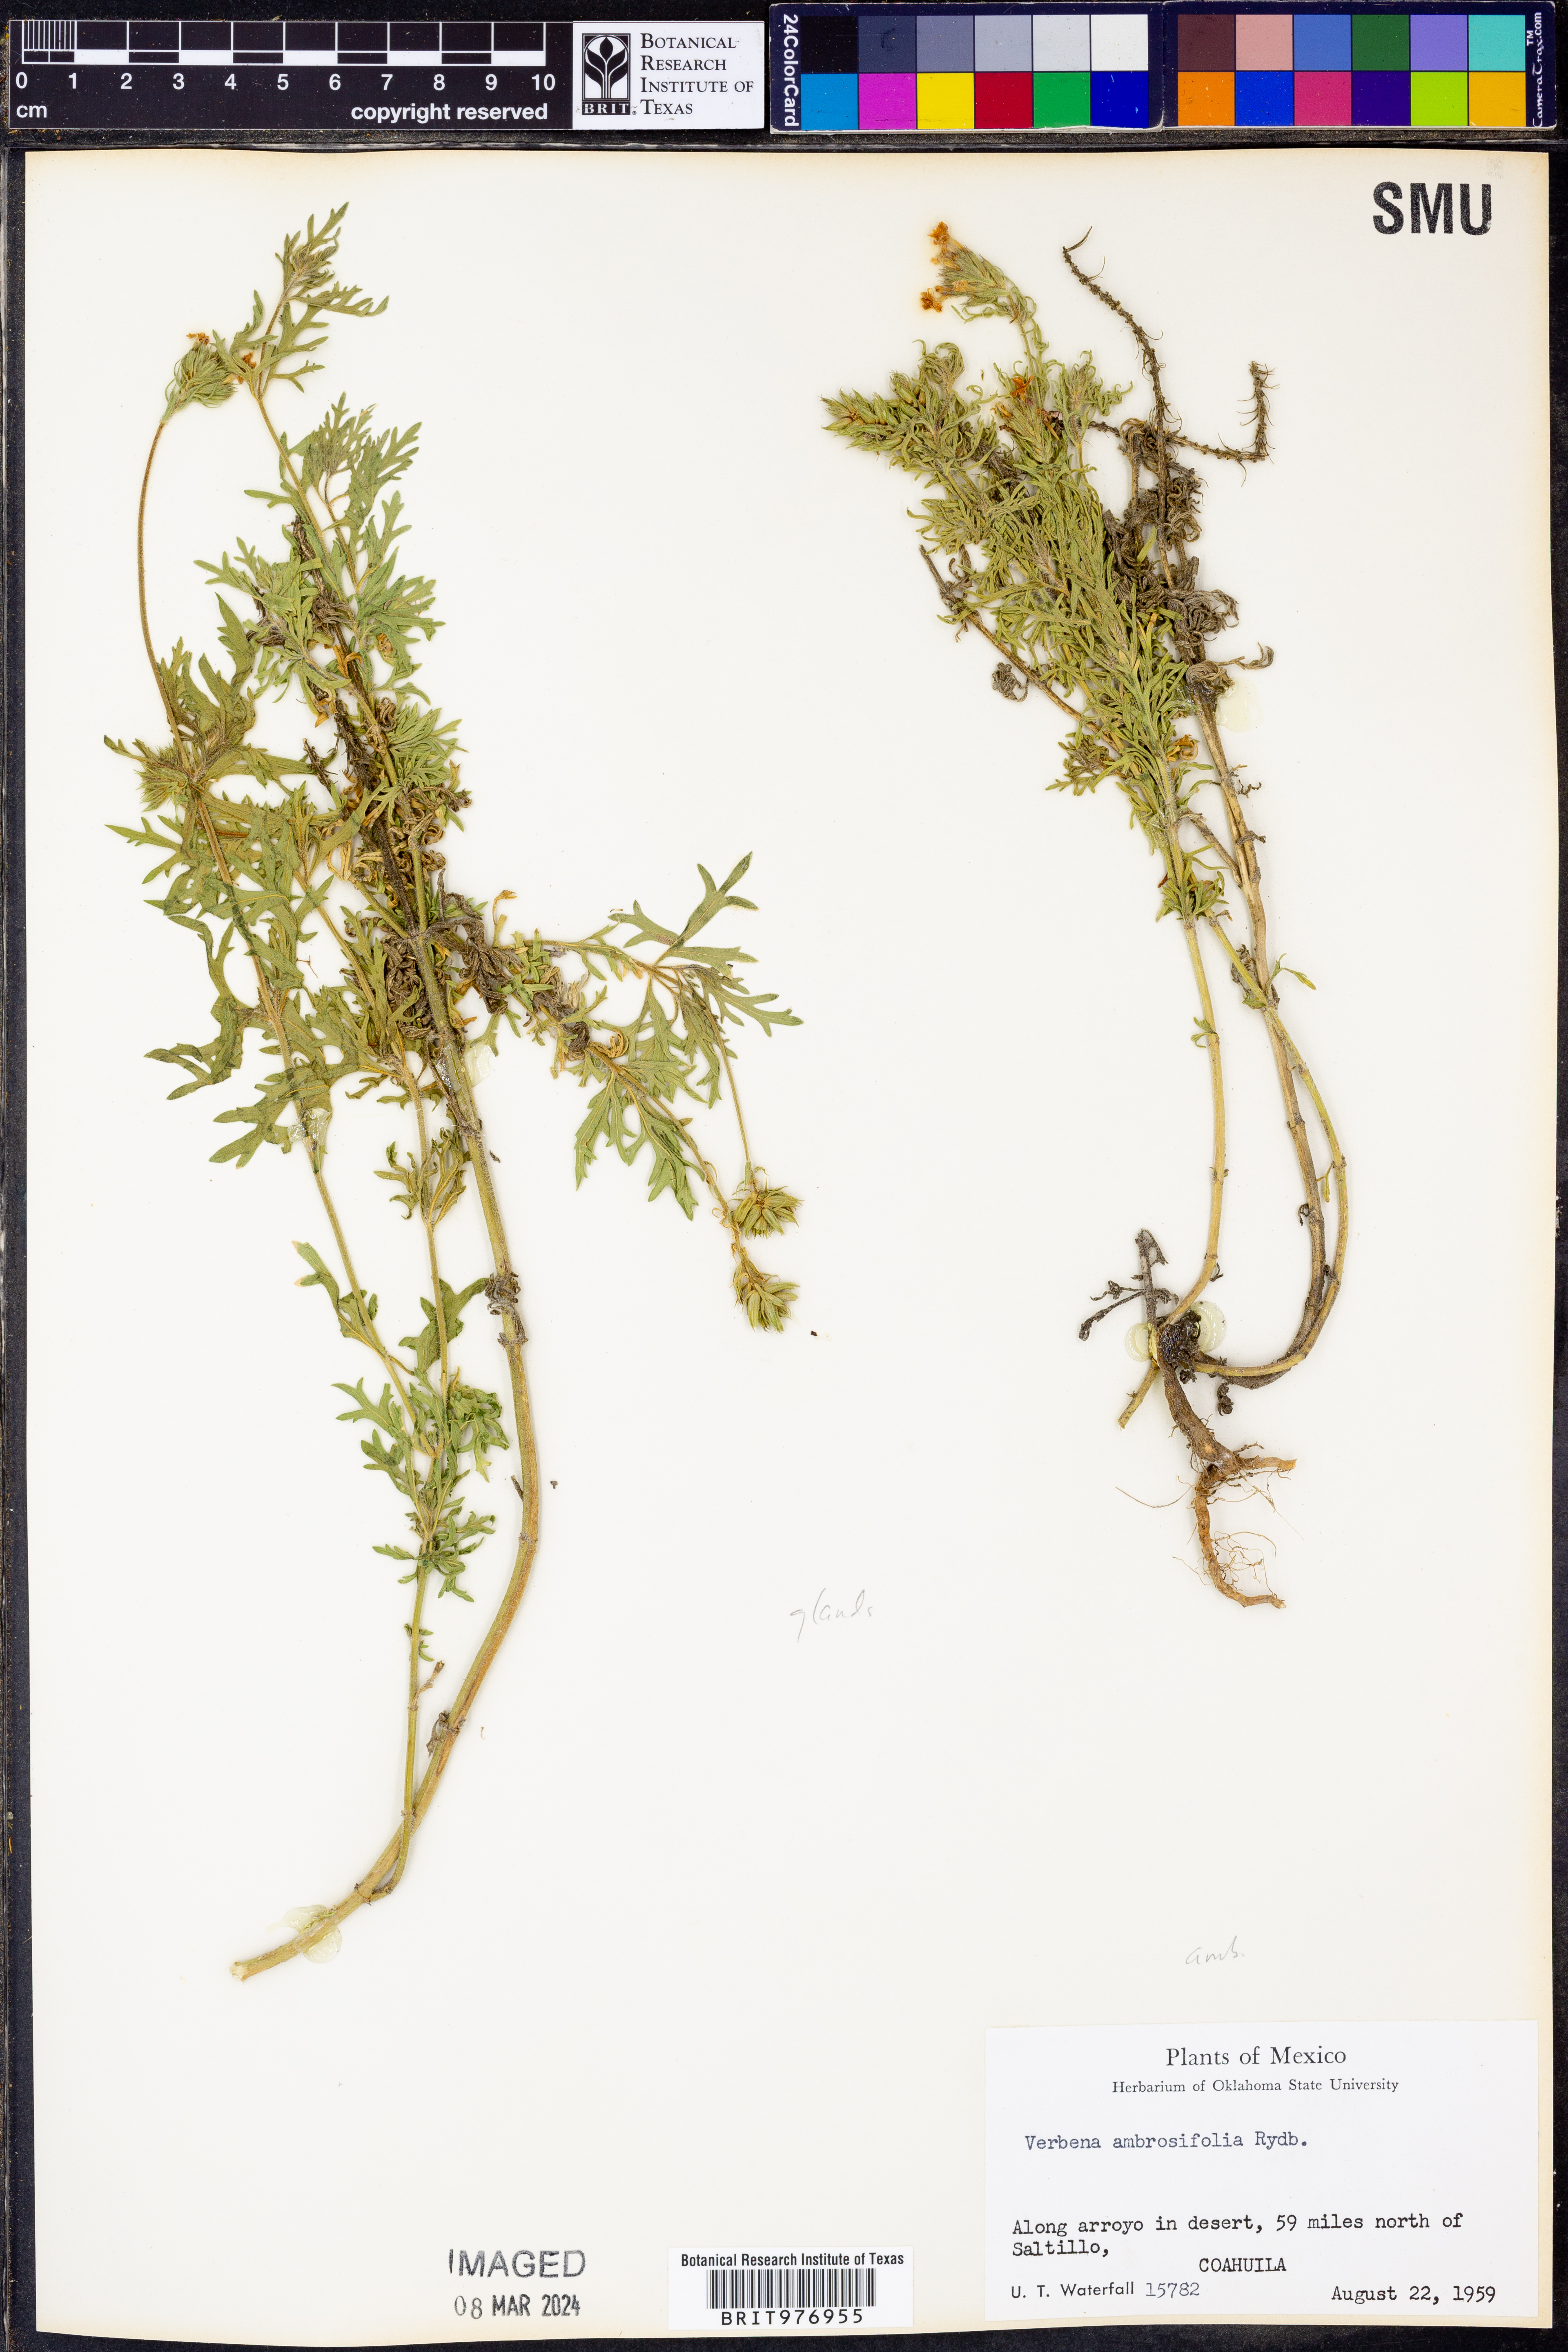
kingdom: Plantae
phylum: Tracheophyta
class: Magnoliopsida
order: Lamiales
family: Verbenaceae
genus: Verbena
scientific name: Verbena
